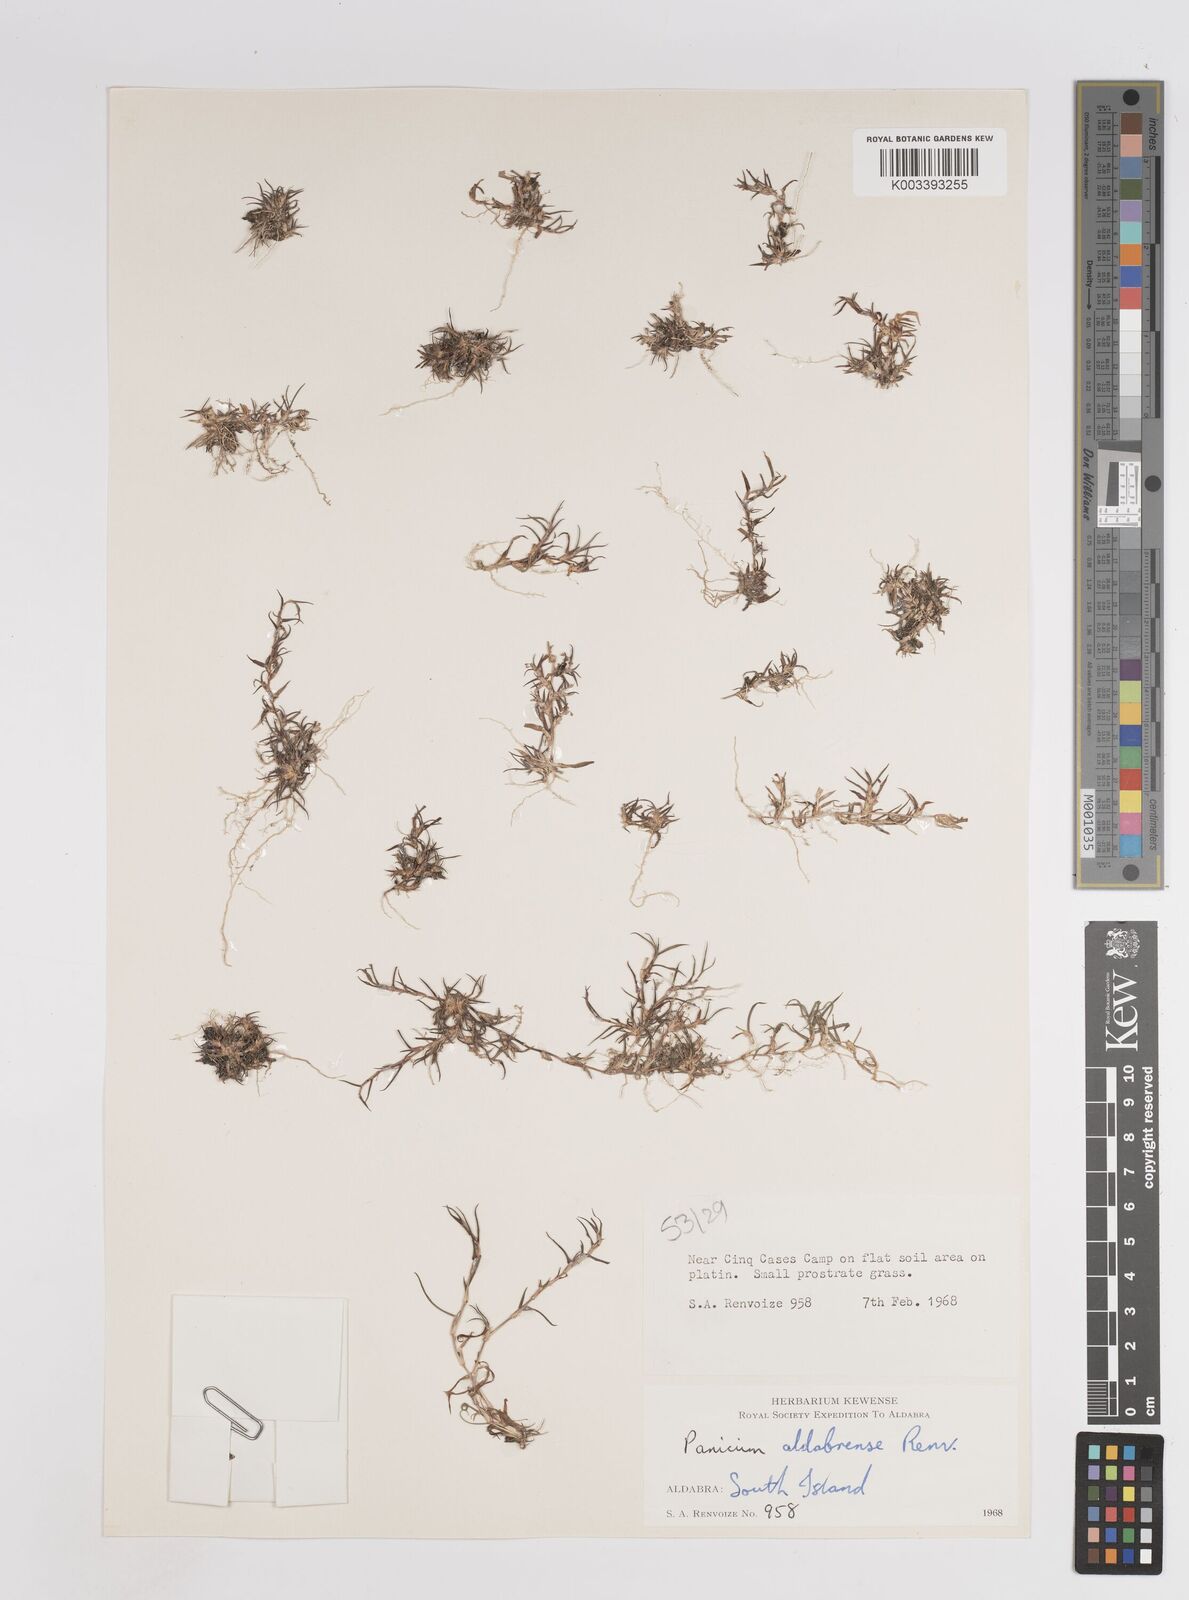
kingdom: Plantae
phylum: Tracheophyta
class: Liliopsida
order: Poales
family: Poaceae
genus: Panicum
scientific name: Panicum aldabrense
